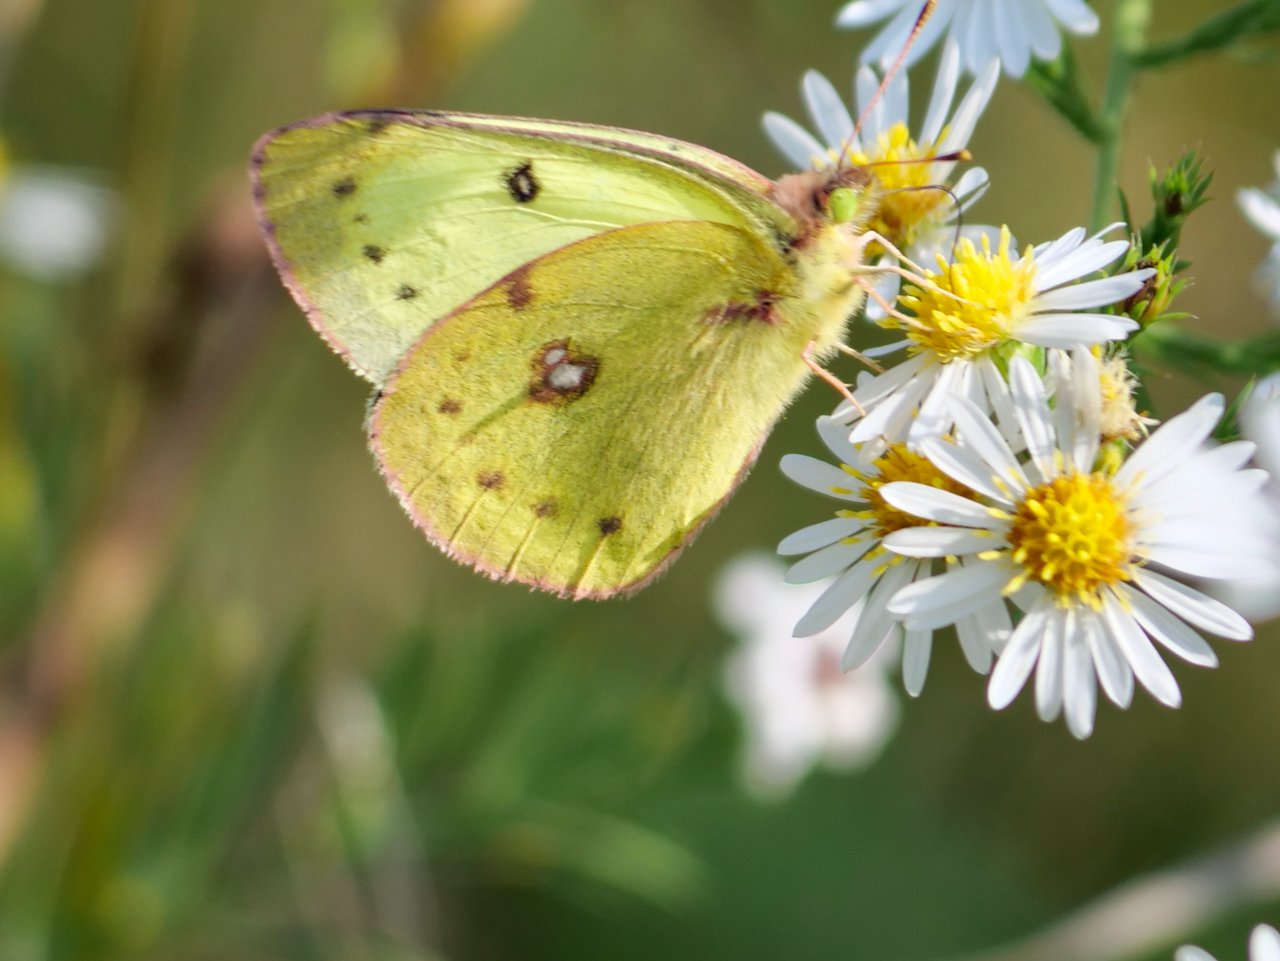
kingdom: Animalia
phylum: Arthropoda
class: Insecta
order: Lepidoptera
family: Pieridae
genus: Colias
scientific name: Colias philodice
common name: Clouded Sulphur
